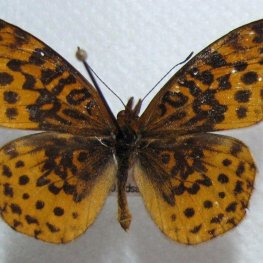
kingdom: Animalia
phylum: Arthropoda
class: Insecta
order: Lepidoptera
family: Nymphalidae
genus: Clossiana
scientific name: Clossiana toddi
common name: Meadow Fritillary
